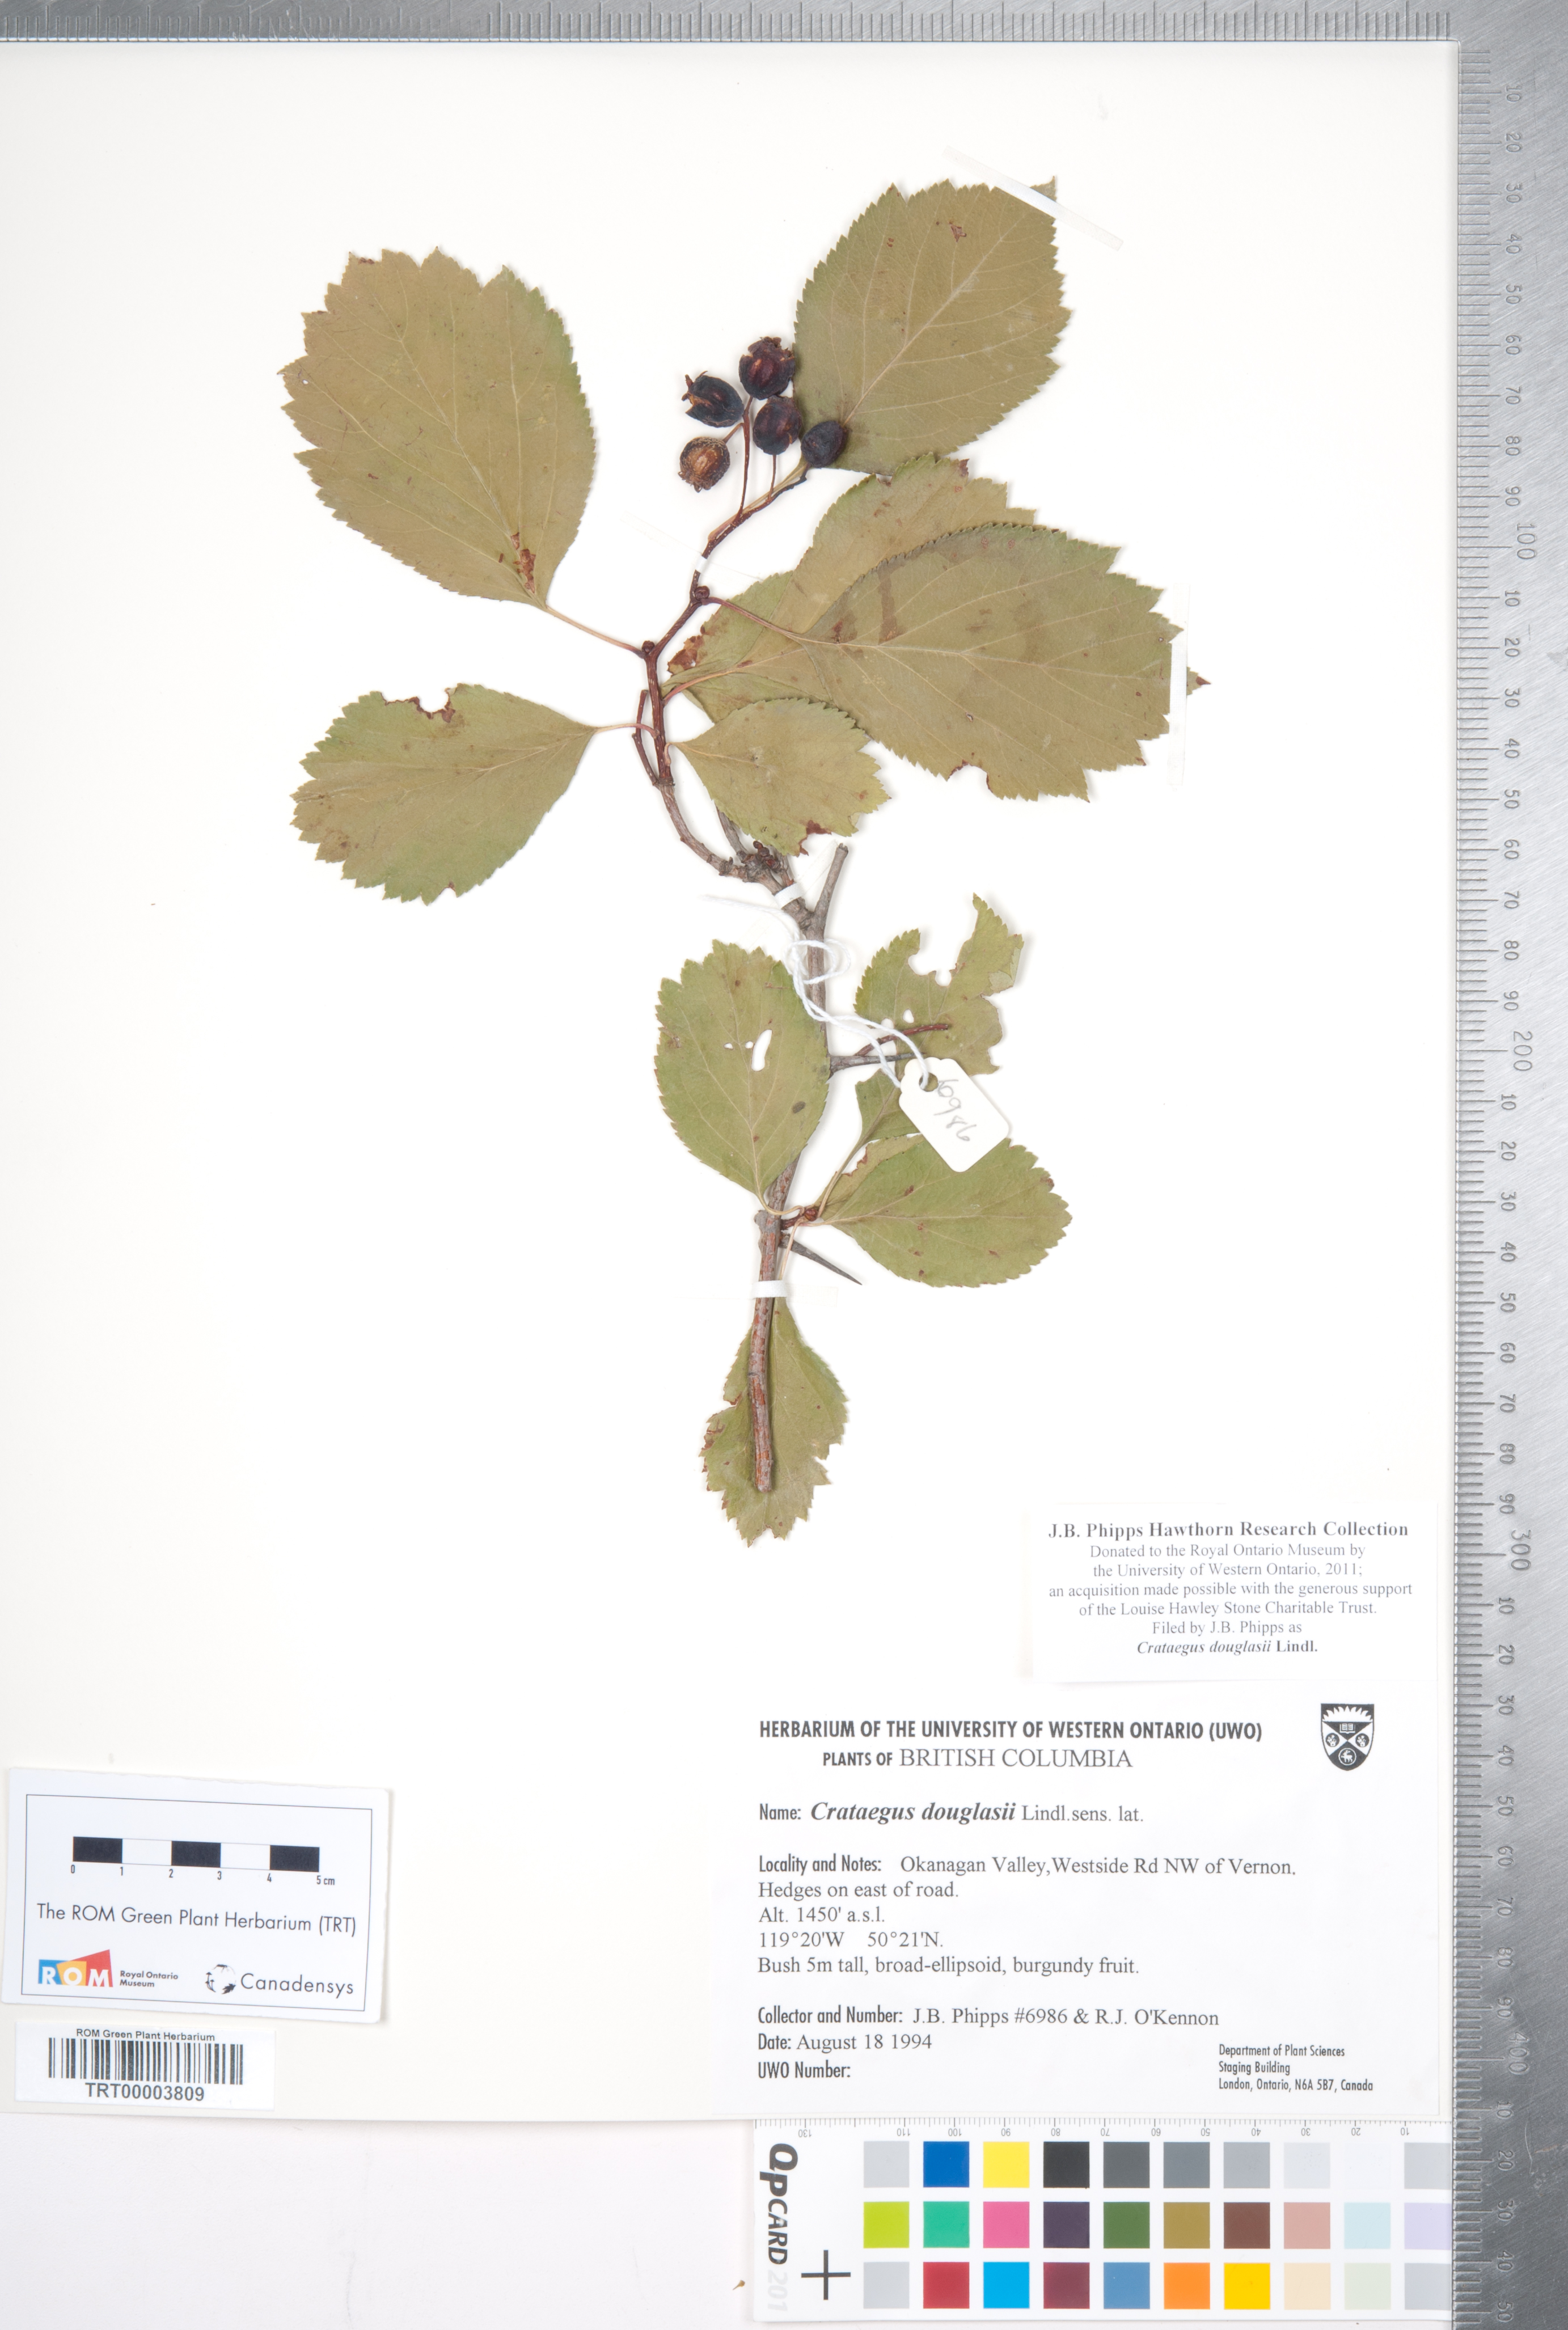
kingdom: Plantae
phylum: Tracheophyta
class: Magnoliopsida
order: Rosales
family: Rosaceae
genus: Crataegus
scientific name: Crataegus douglasii
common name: Black hawthorn
